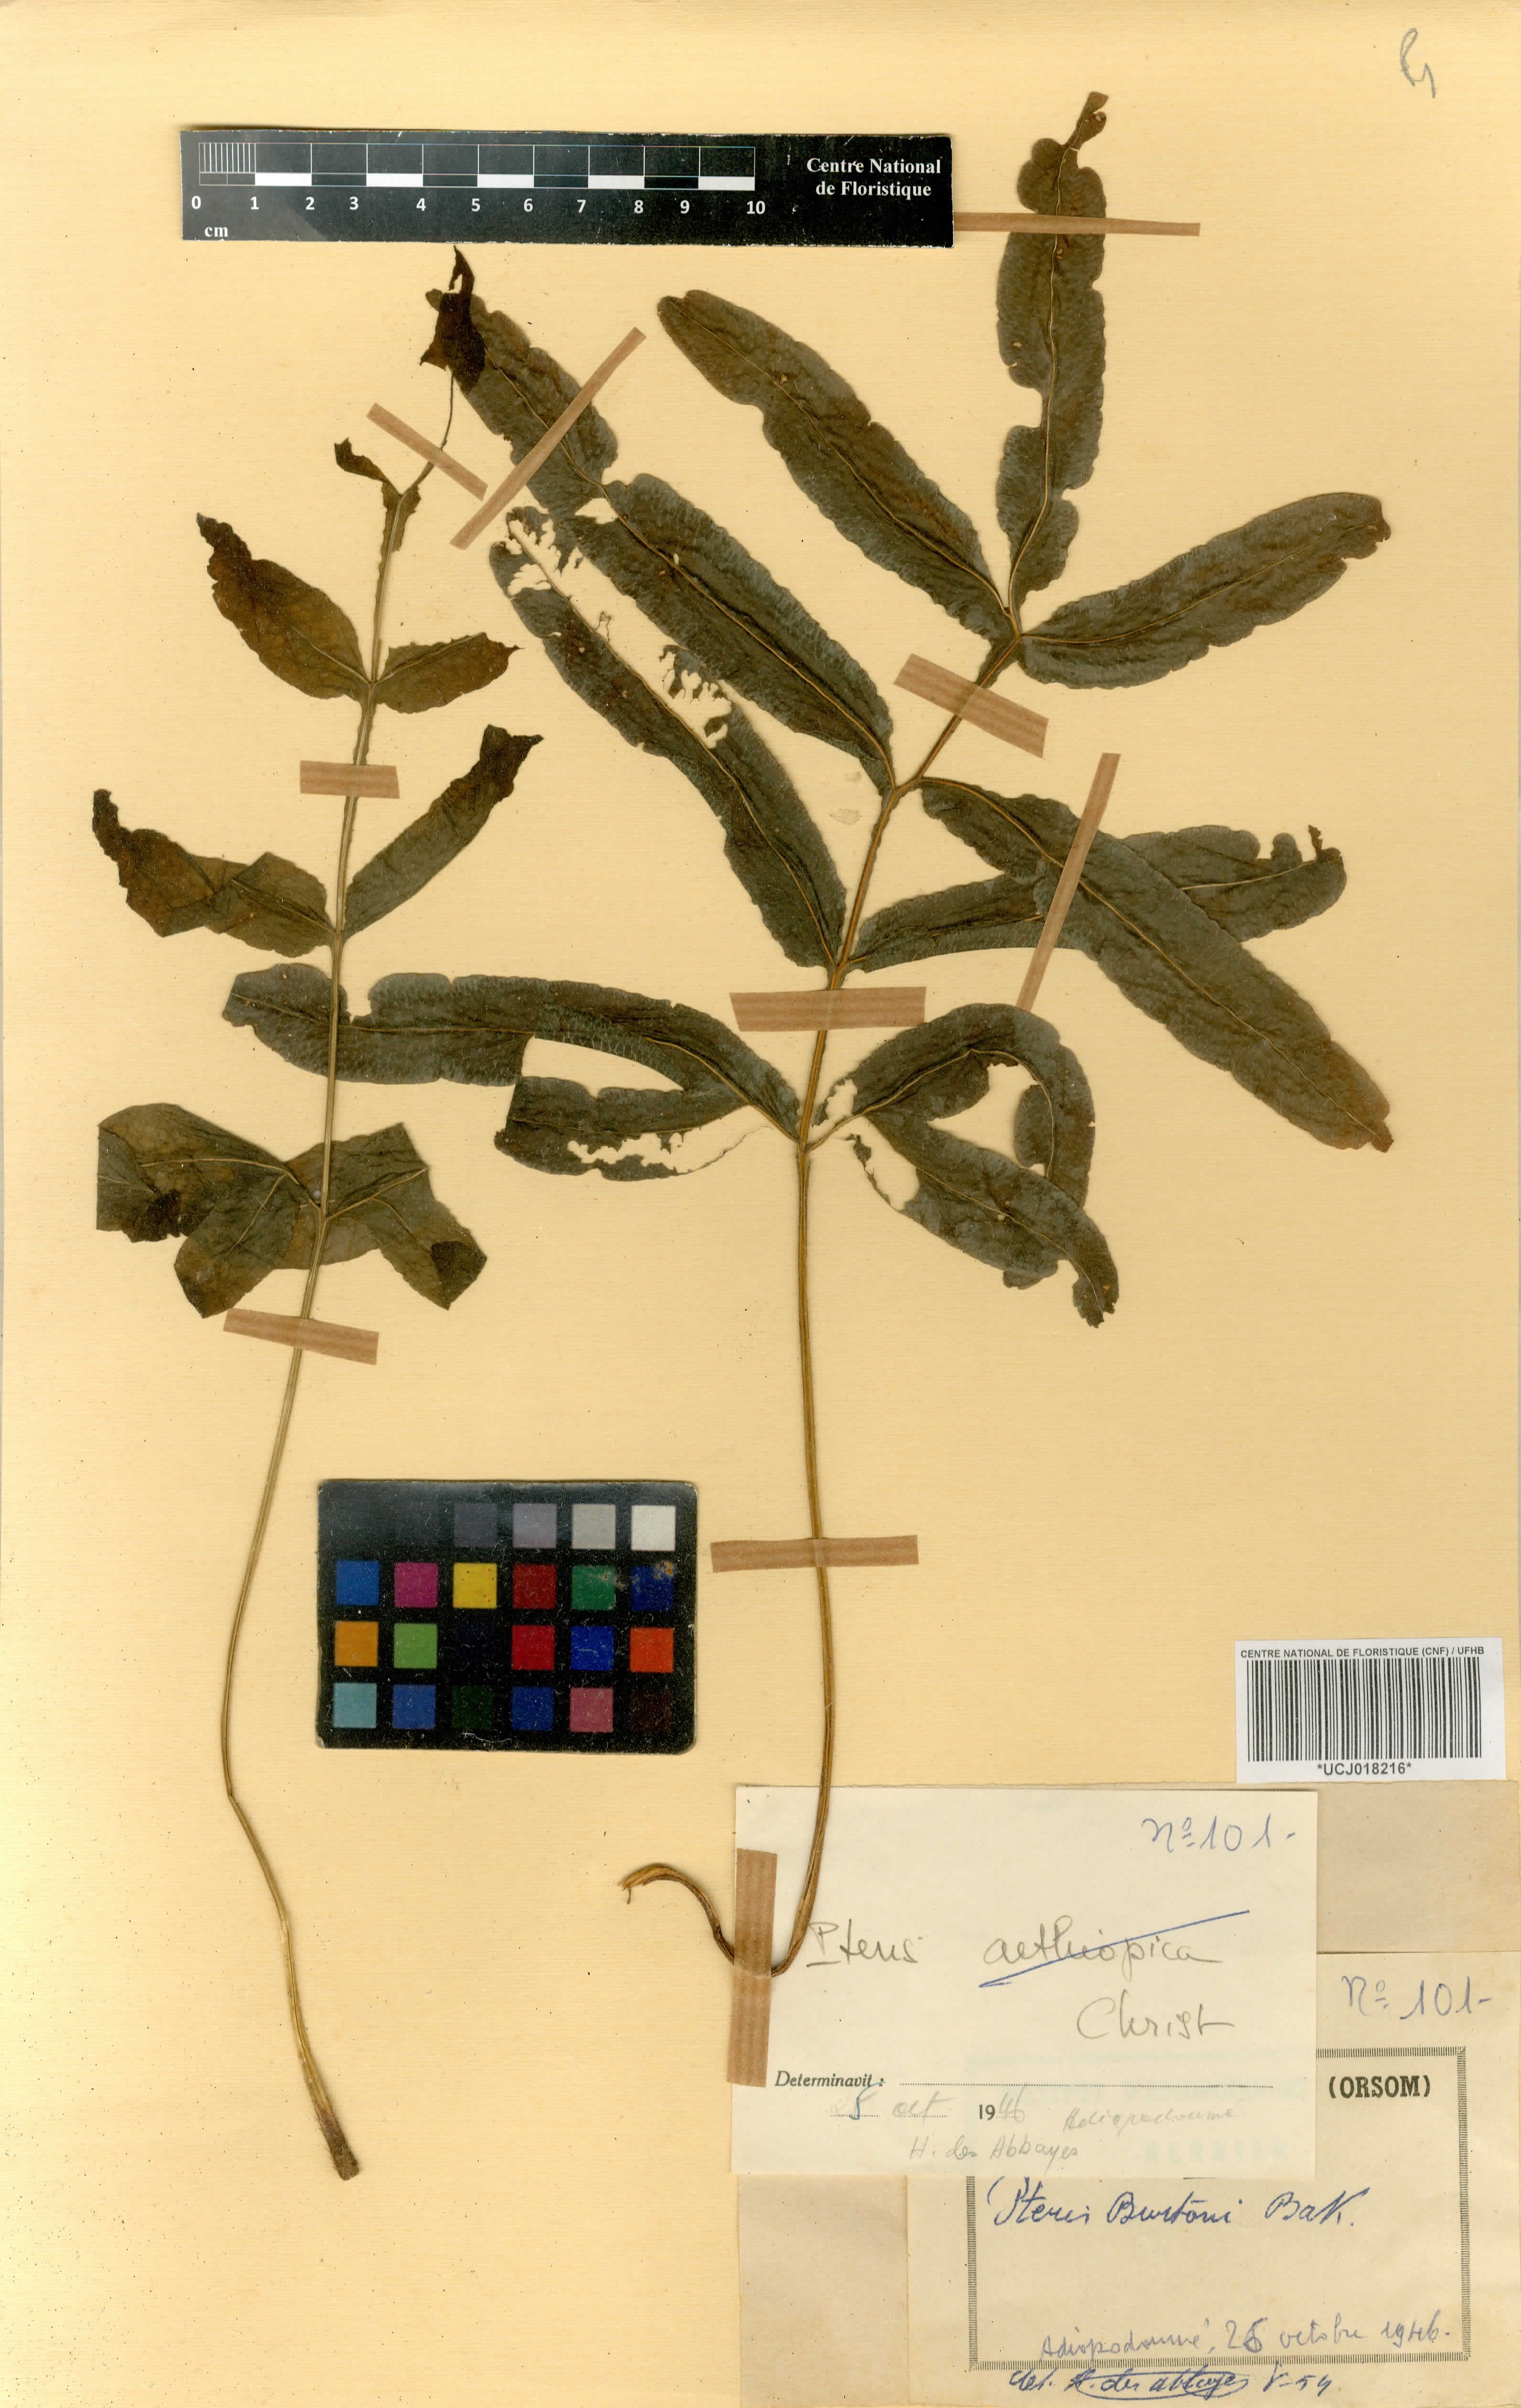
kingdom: Plantae
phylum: Tracheophyta
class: Polypodiopsida
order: Polypodiales
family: Pteridaceae
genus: Pteris
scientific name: Pteris burtonii
